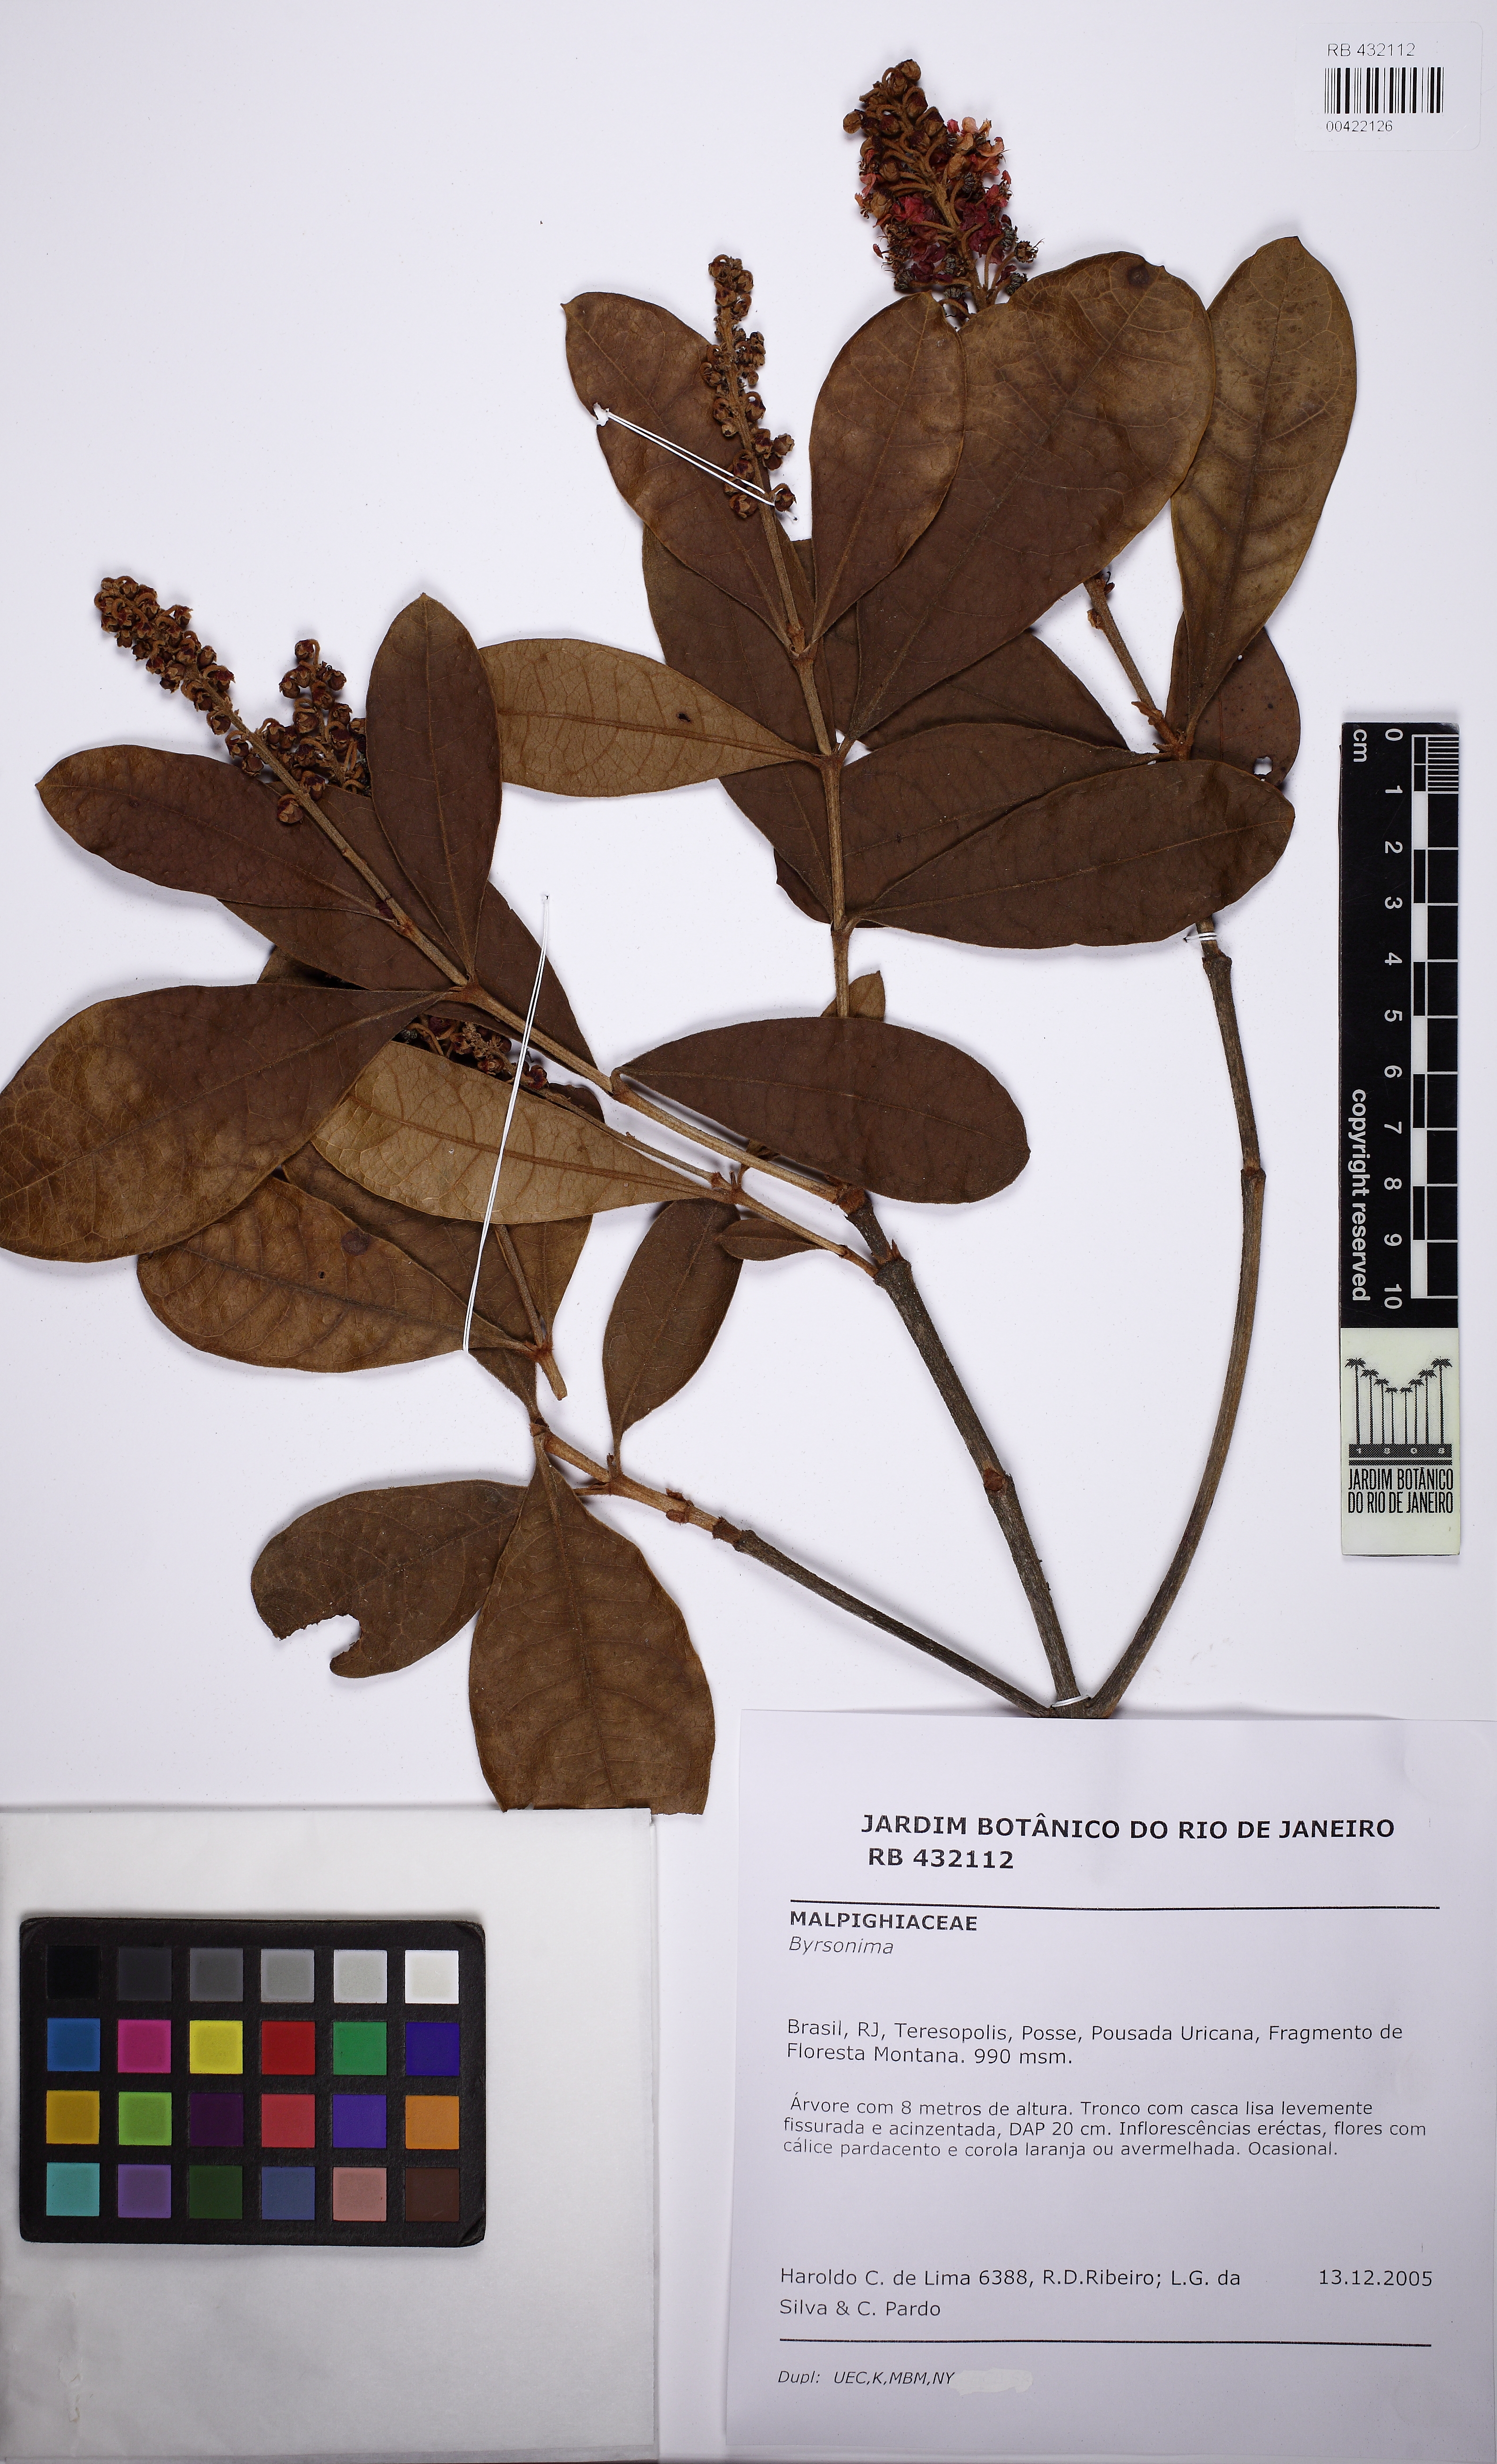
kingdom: Plantae
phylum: Tracheophyta
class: Magnoliopsida
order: Malpighiales
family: Malpighiaceae
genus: Byrsonima
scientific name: Byrsonima
